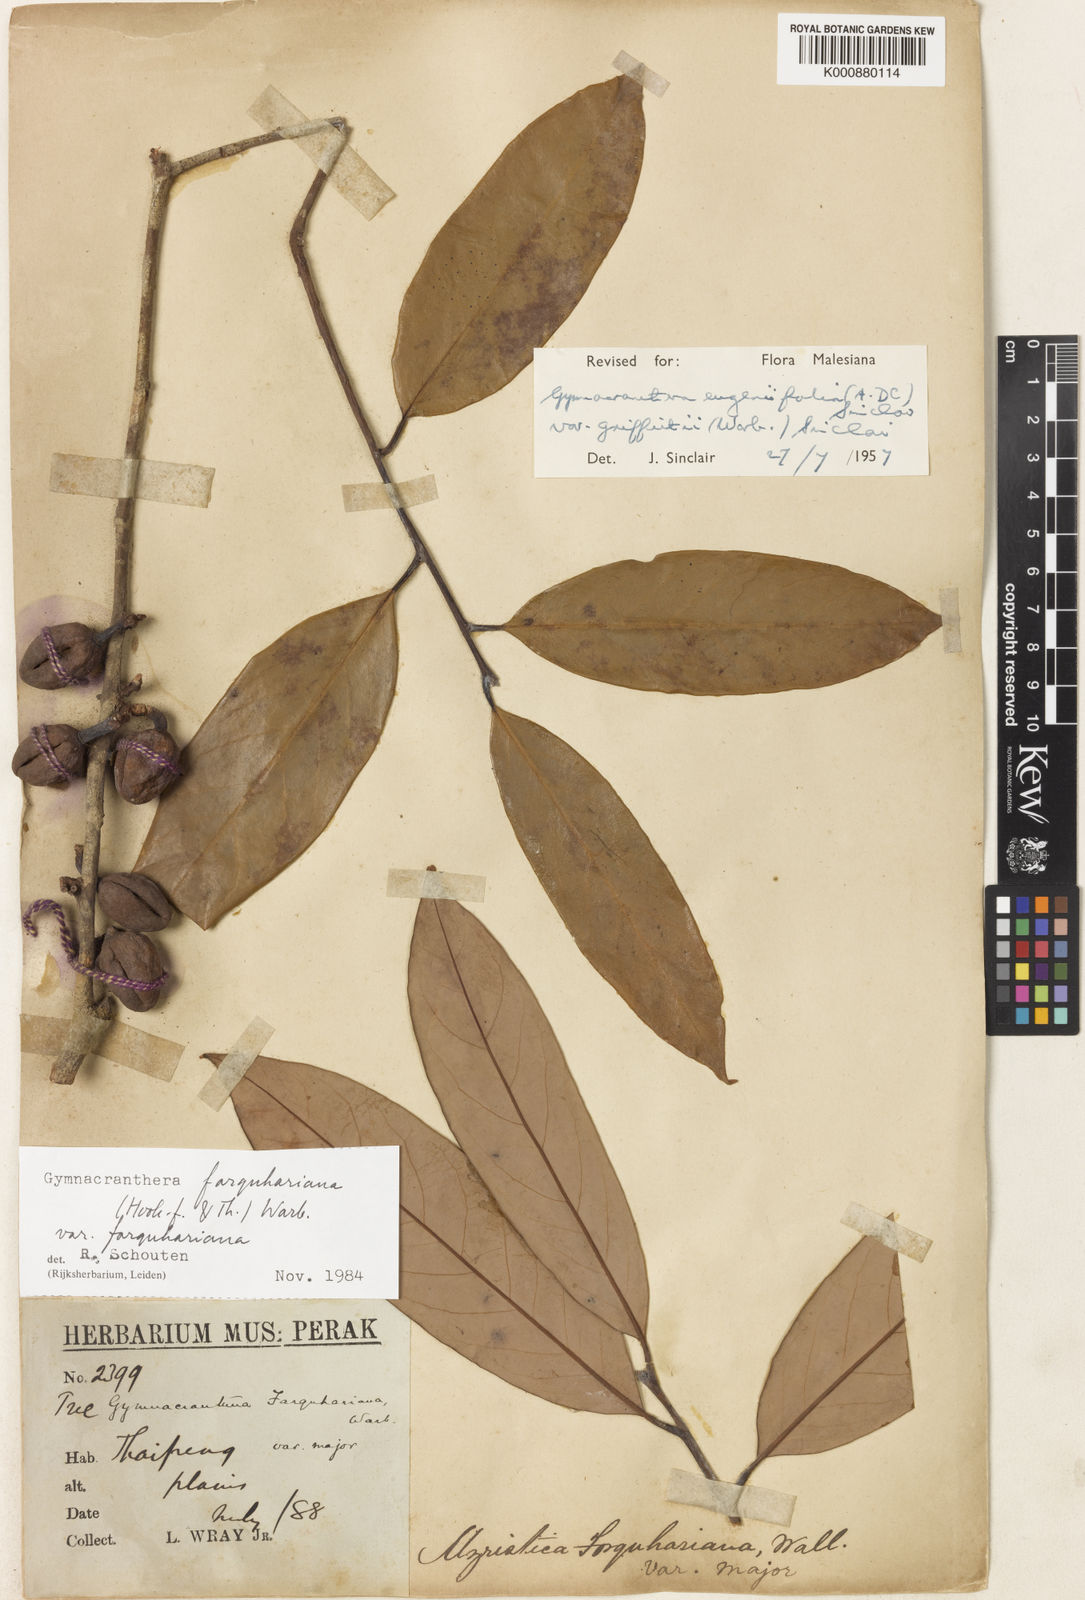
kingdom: Plantae
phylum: Tracheophyta
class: Magnoliopsida
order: Magnoliales
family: Myristicaceae
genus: Gymnacranthera
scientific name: Gymnacranthera farquhariana
